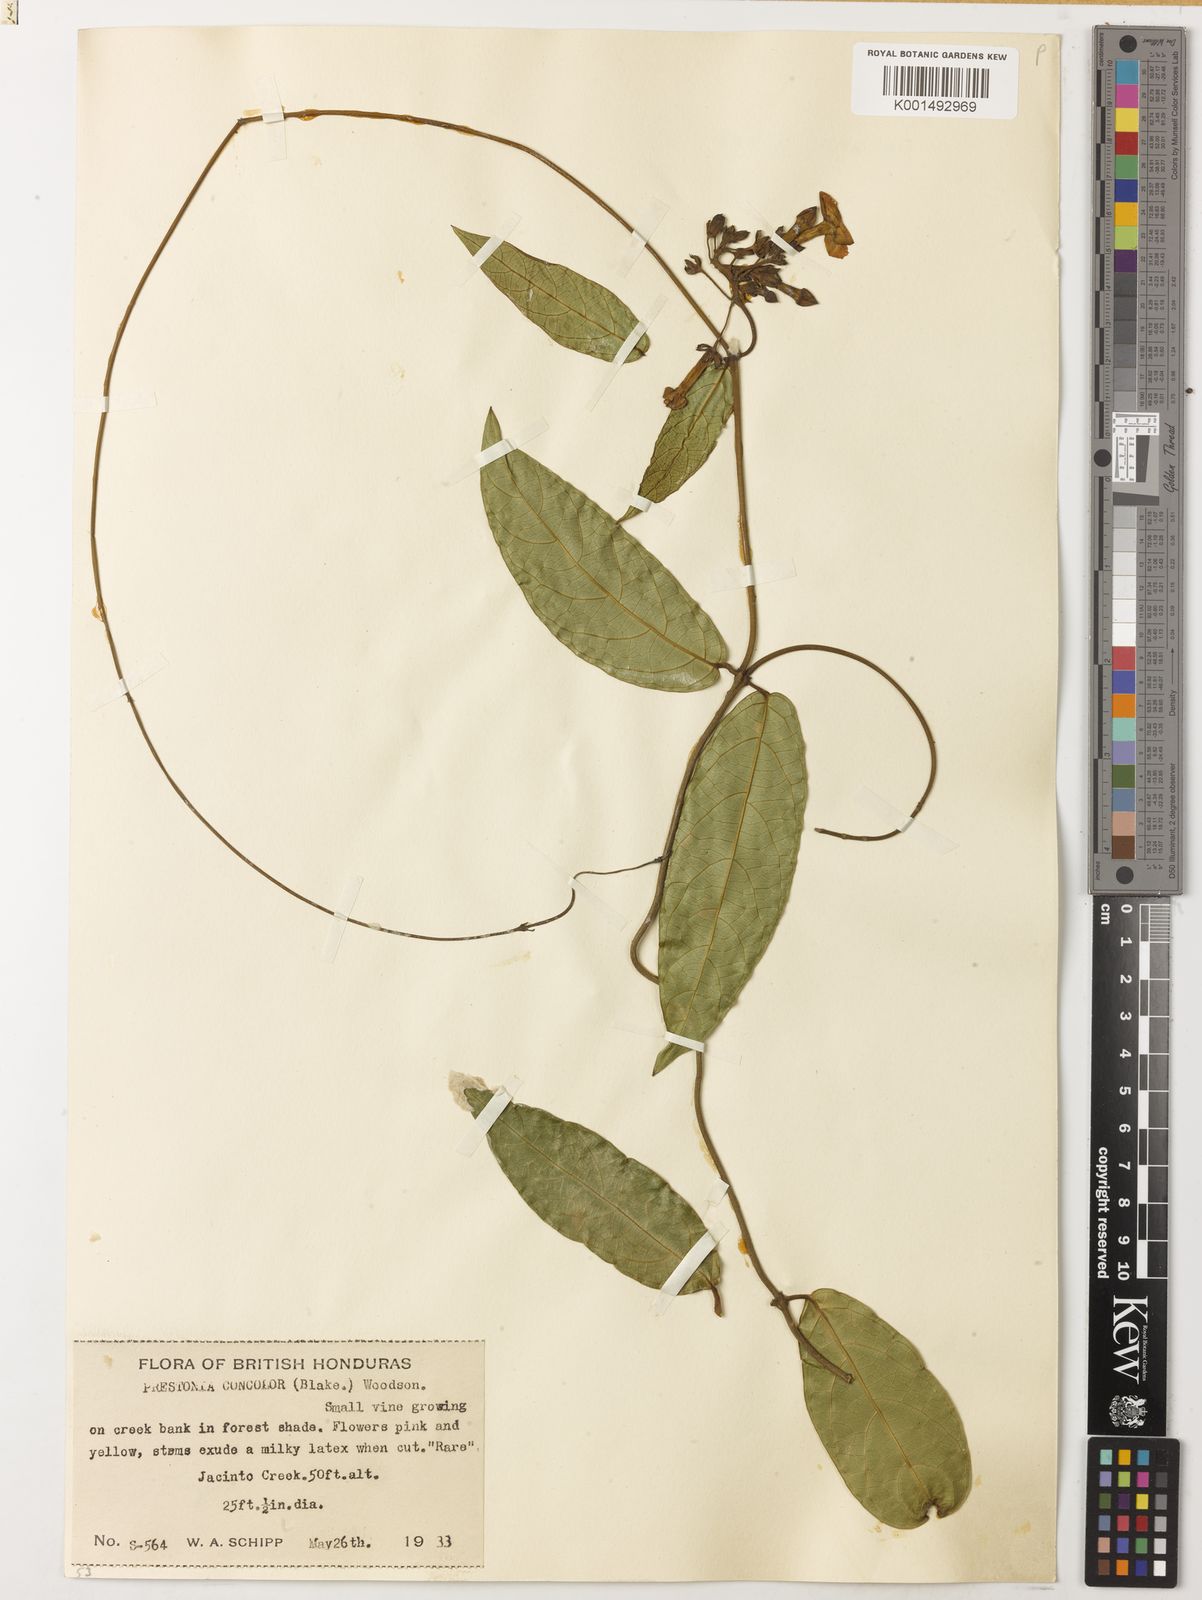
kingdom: Plantae
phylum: Tracheophyta
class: Magnoliopsida
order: Gentianales
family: Apocynaceae
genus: Prestonia
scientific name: Prestonia longifolia
